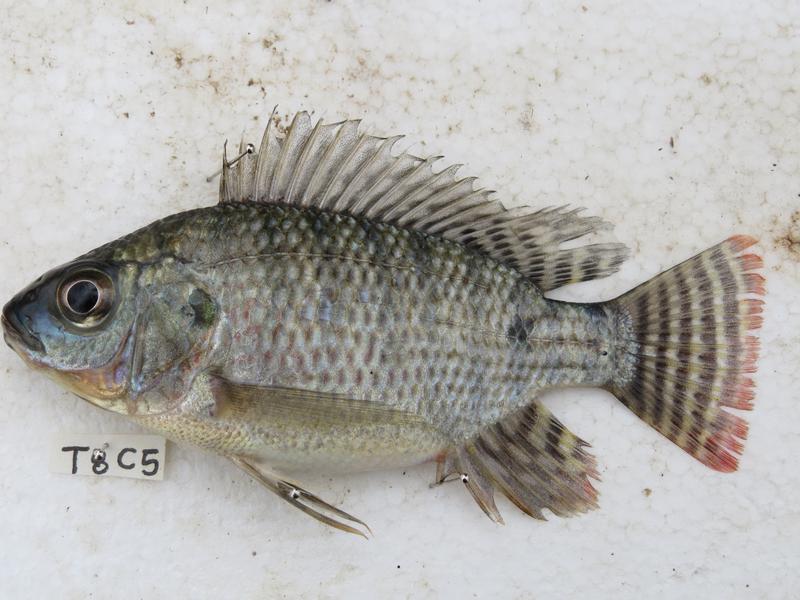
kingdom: Animalia
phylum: Chordata
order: Perciformes
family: Cichlidae
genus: Oreochromis
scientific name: Oreochromis niloticus
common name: Nile tilapia
